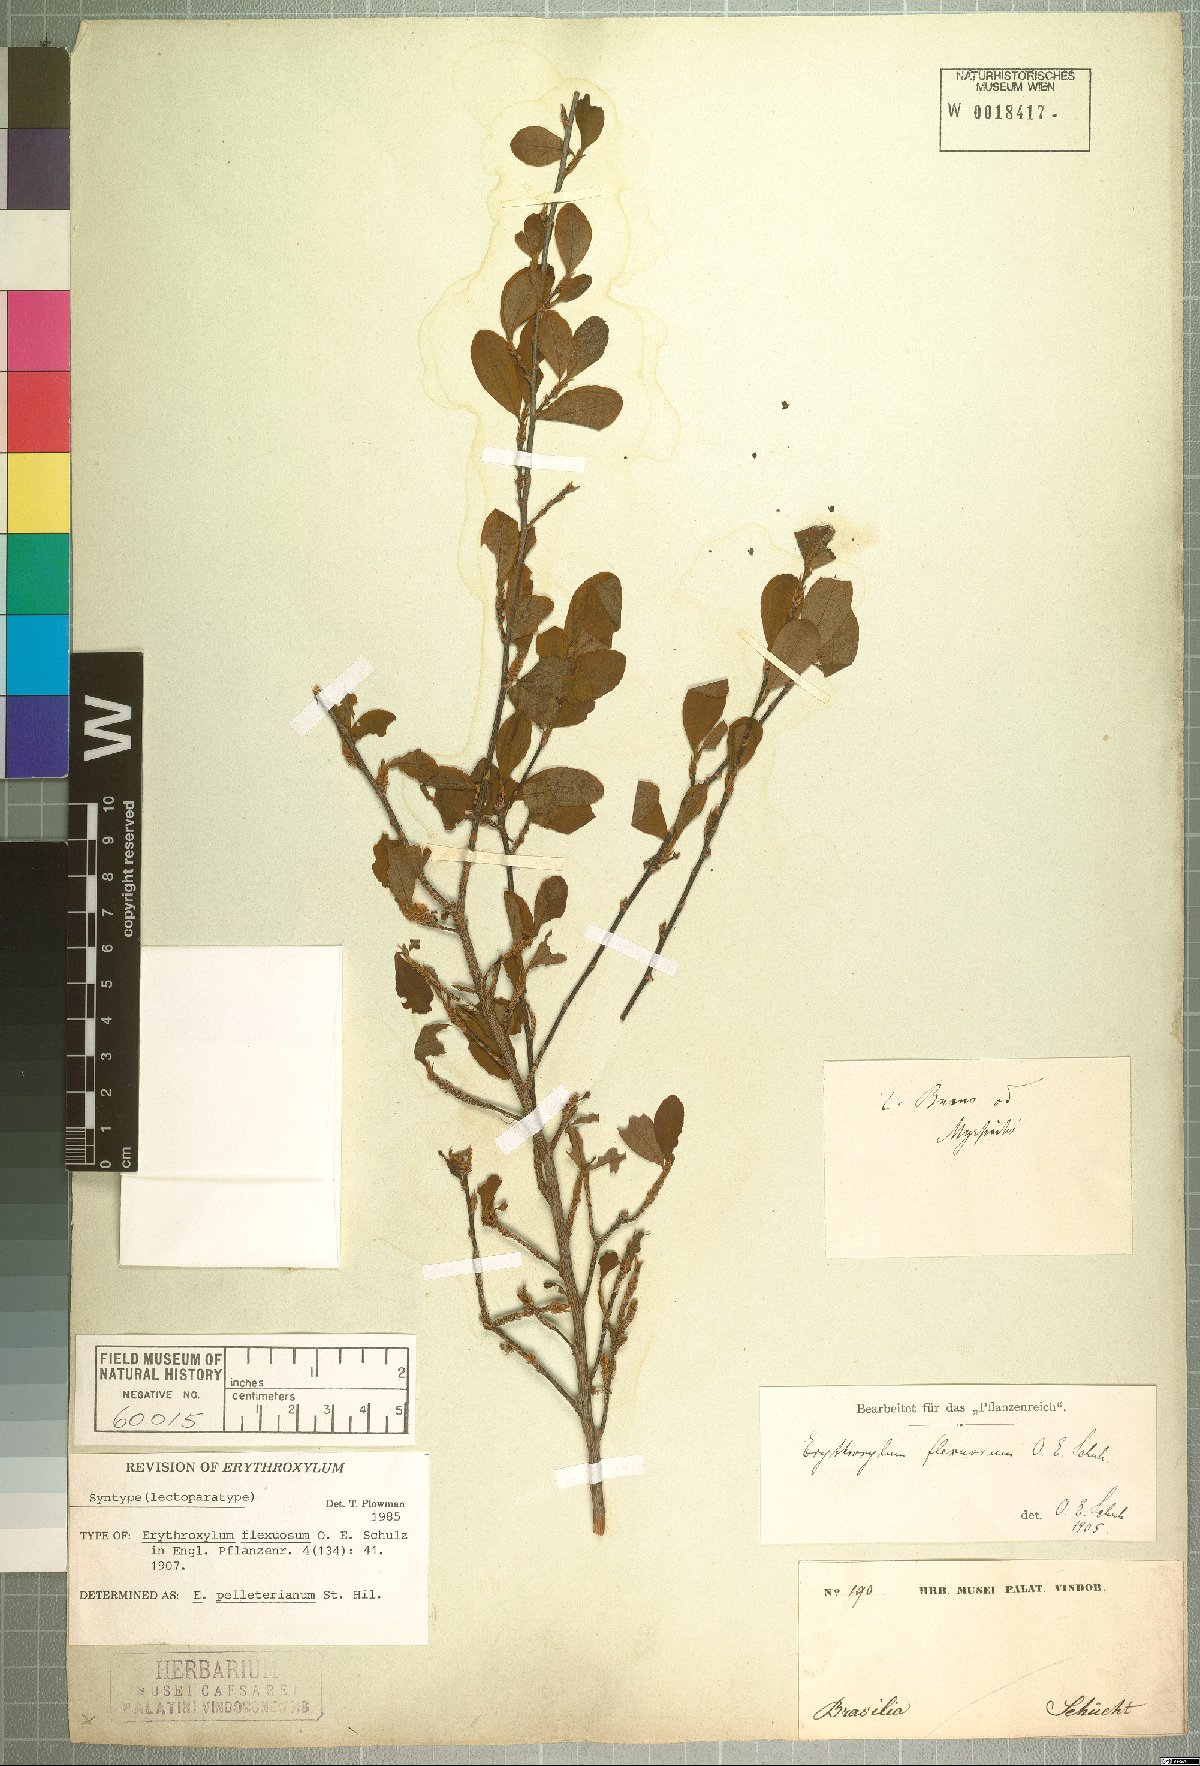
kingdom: Plantae
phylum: Tracheophyta
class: Magnoliopsida
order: Malpighiales
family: Erythroxylaceae
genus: Erythroxylum
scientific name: Erythroxylum pelleterianum
